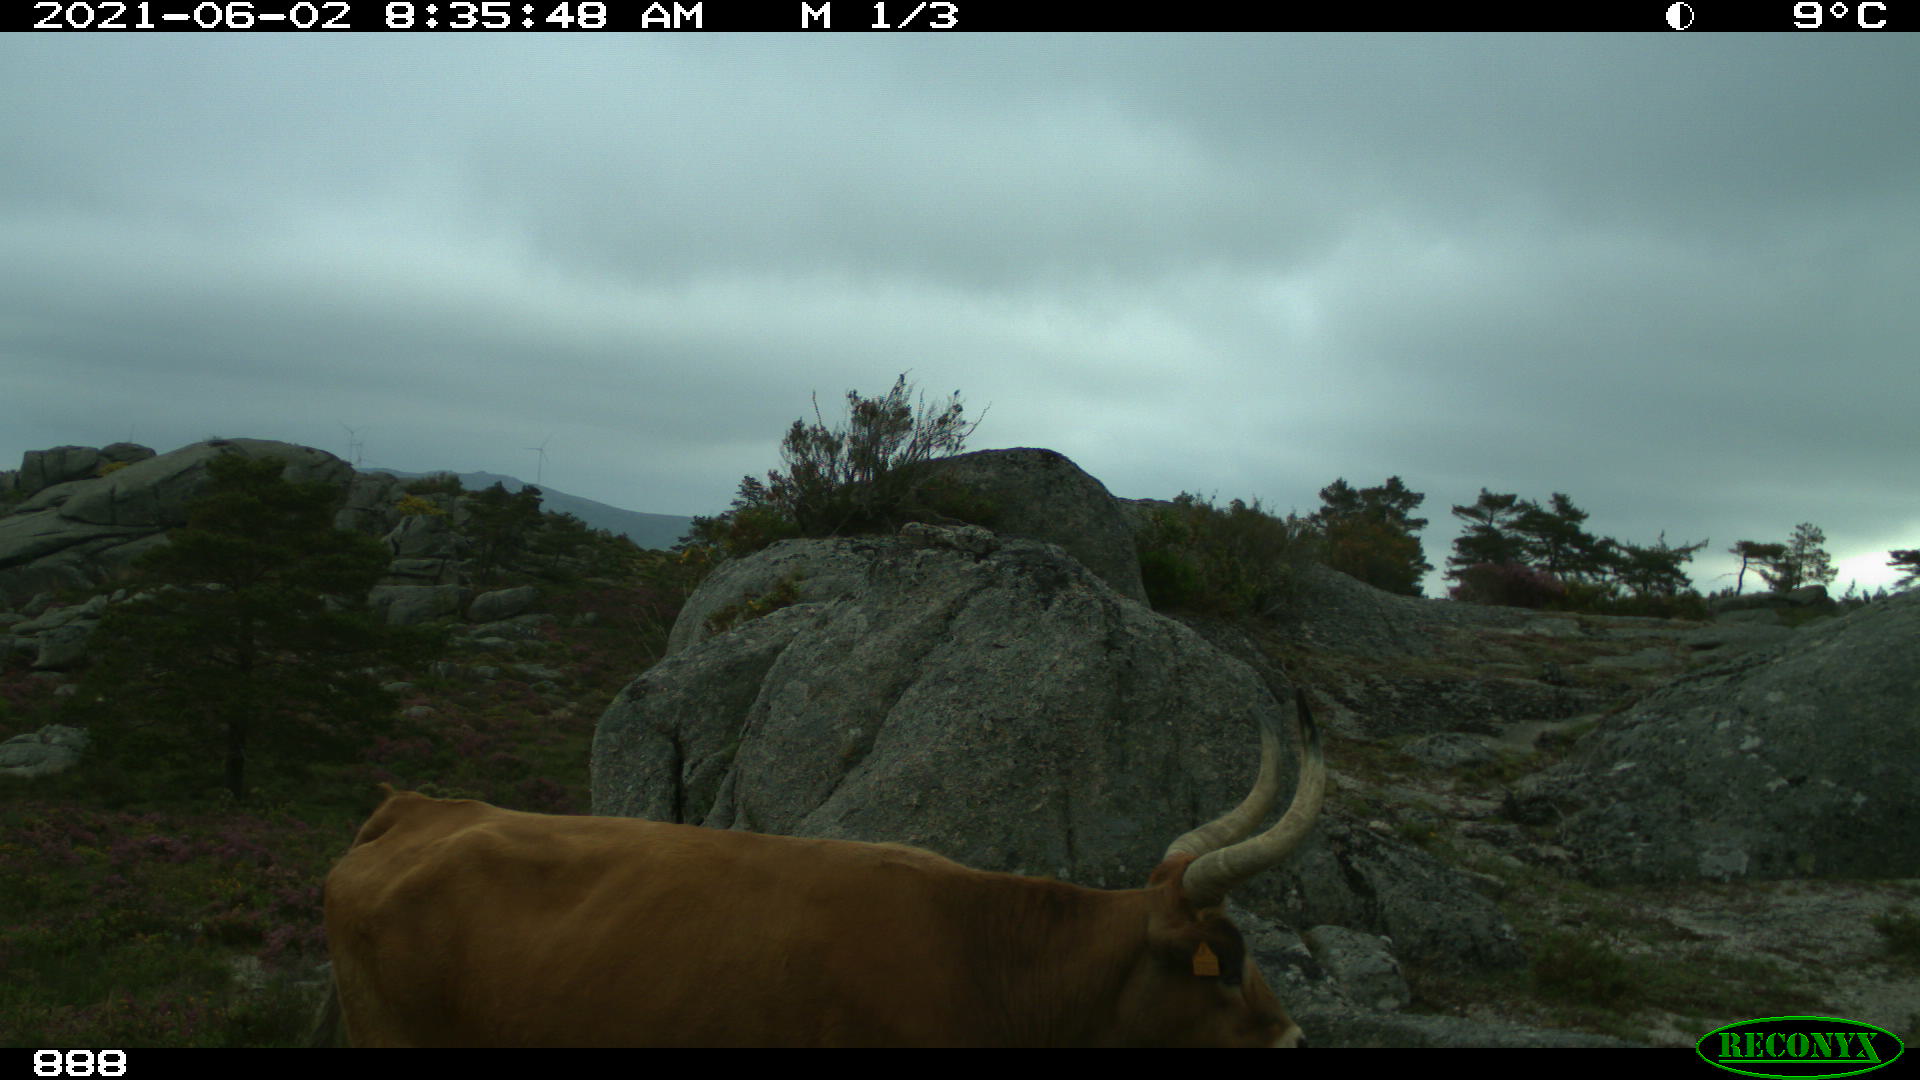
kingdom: Animalia
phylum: Chordata
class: Mammalia
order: Artiodactyla
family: Bovidae
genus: Bos
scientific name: Bos taurus
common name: Domesticated cattle
